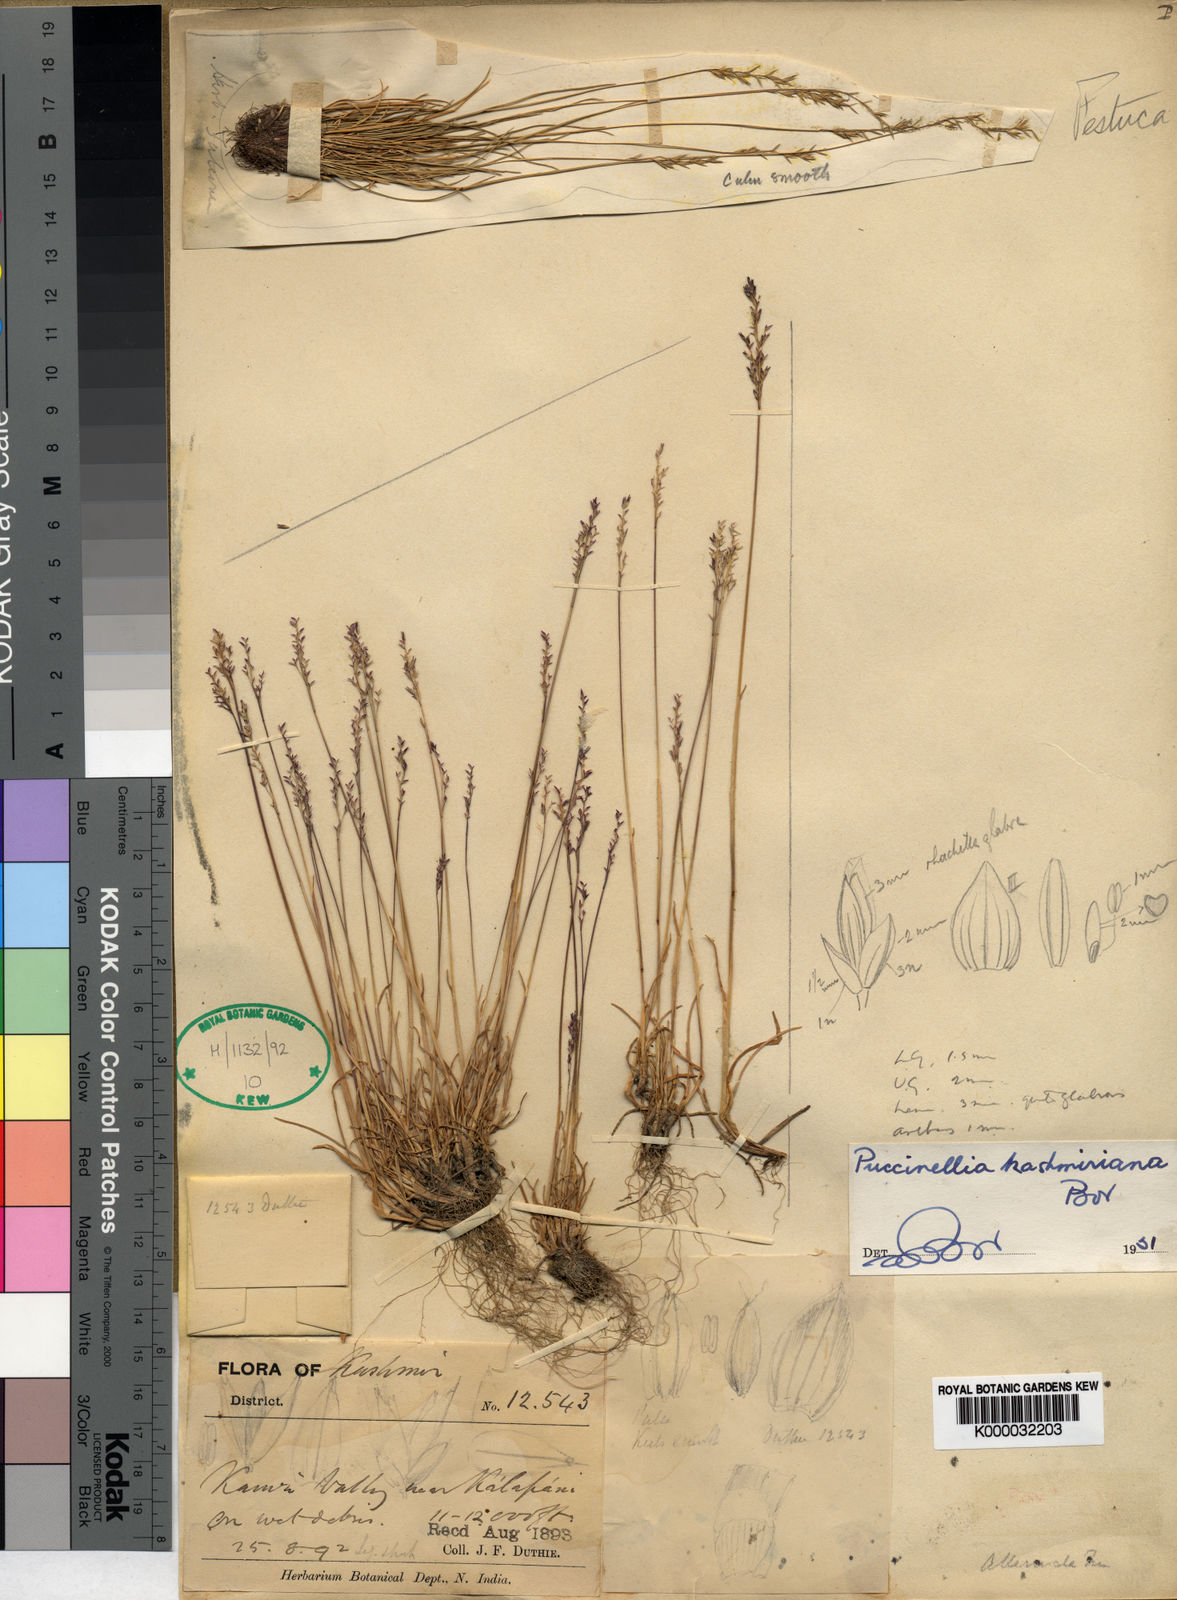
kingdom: Plantae
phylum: Tracheophyta
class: Liliopsida
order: Poales
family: Poaceae
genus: Puccinellia
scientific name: Puccinellia kashmiriana
